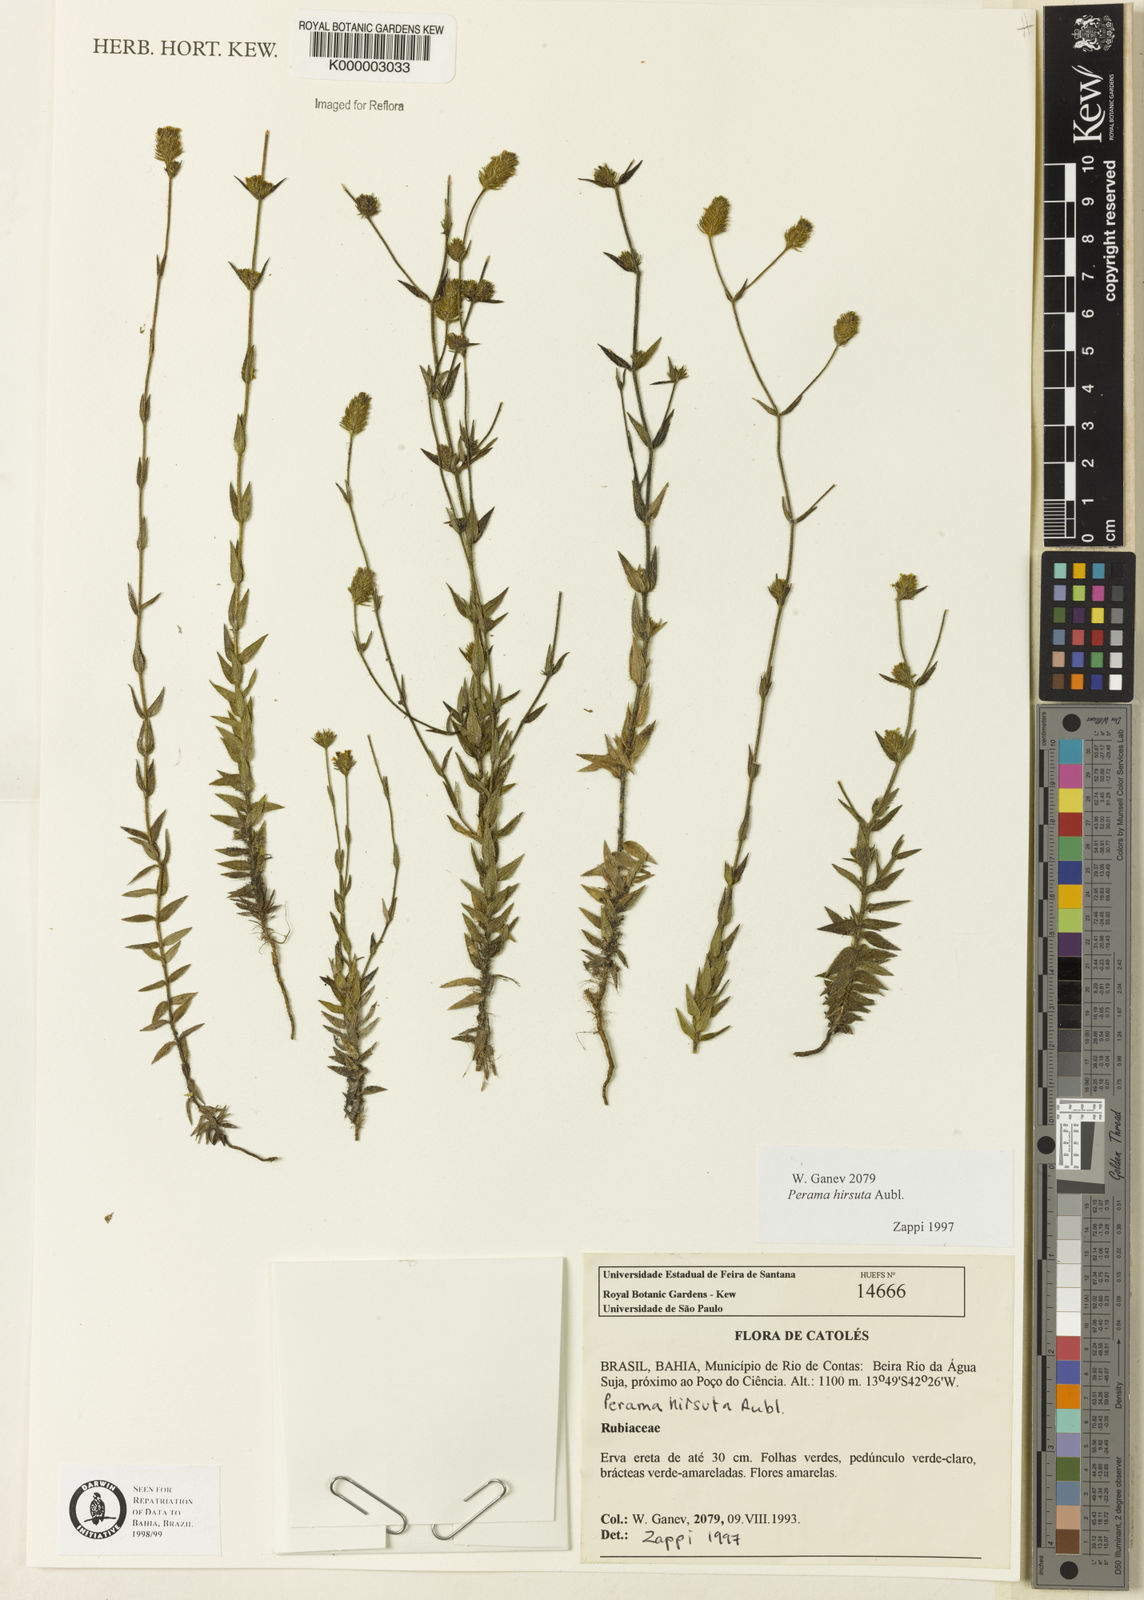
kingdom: Plantae
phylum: Tracheophyta
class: Magnoliopsida
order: Gentianales
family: Rubiaceae
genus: Perama
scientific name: Perama hirsuta
